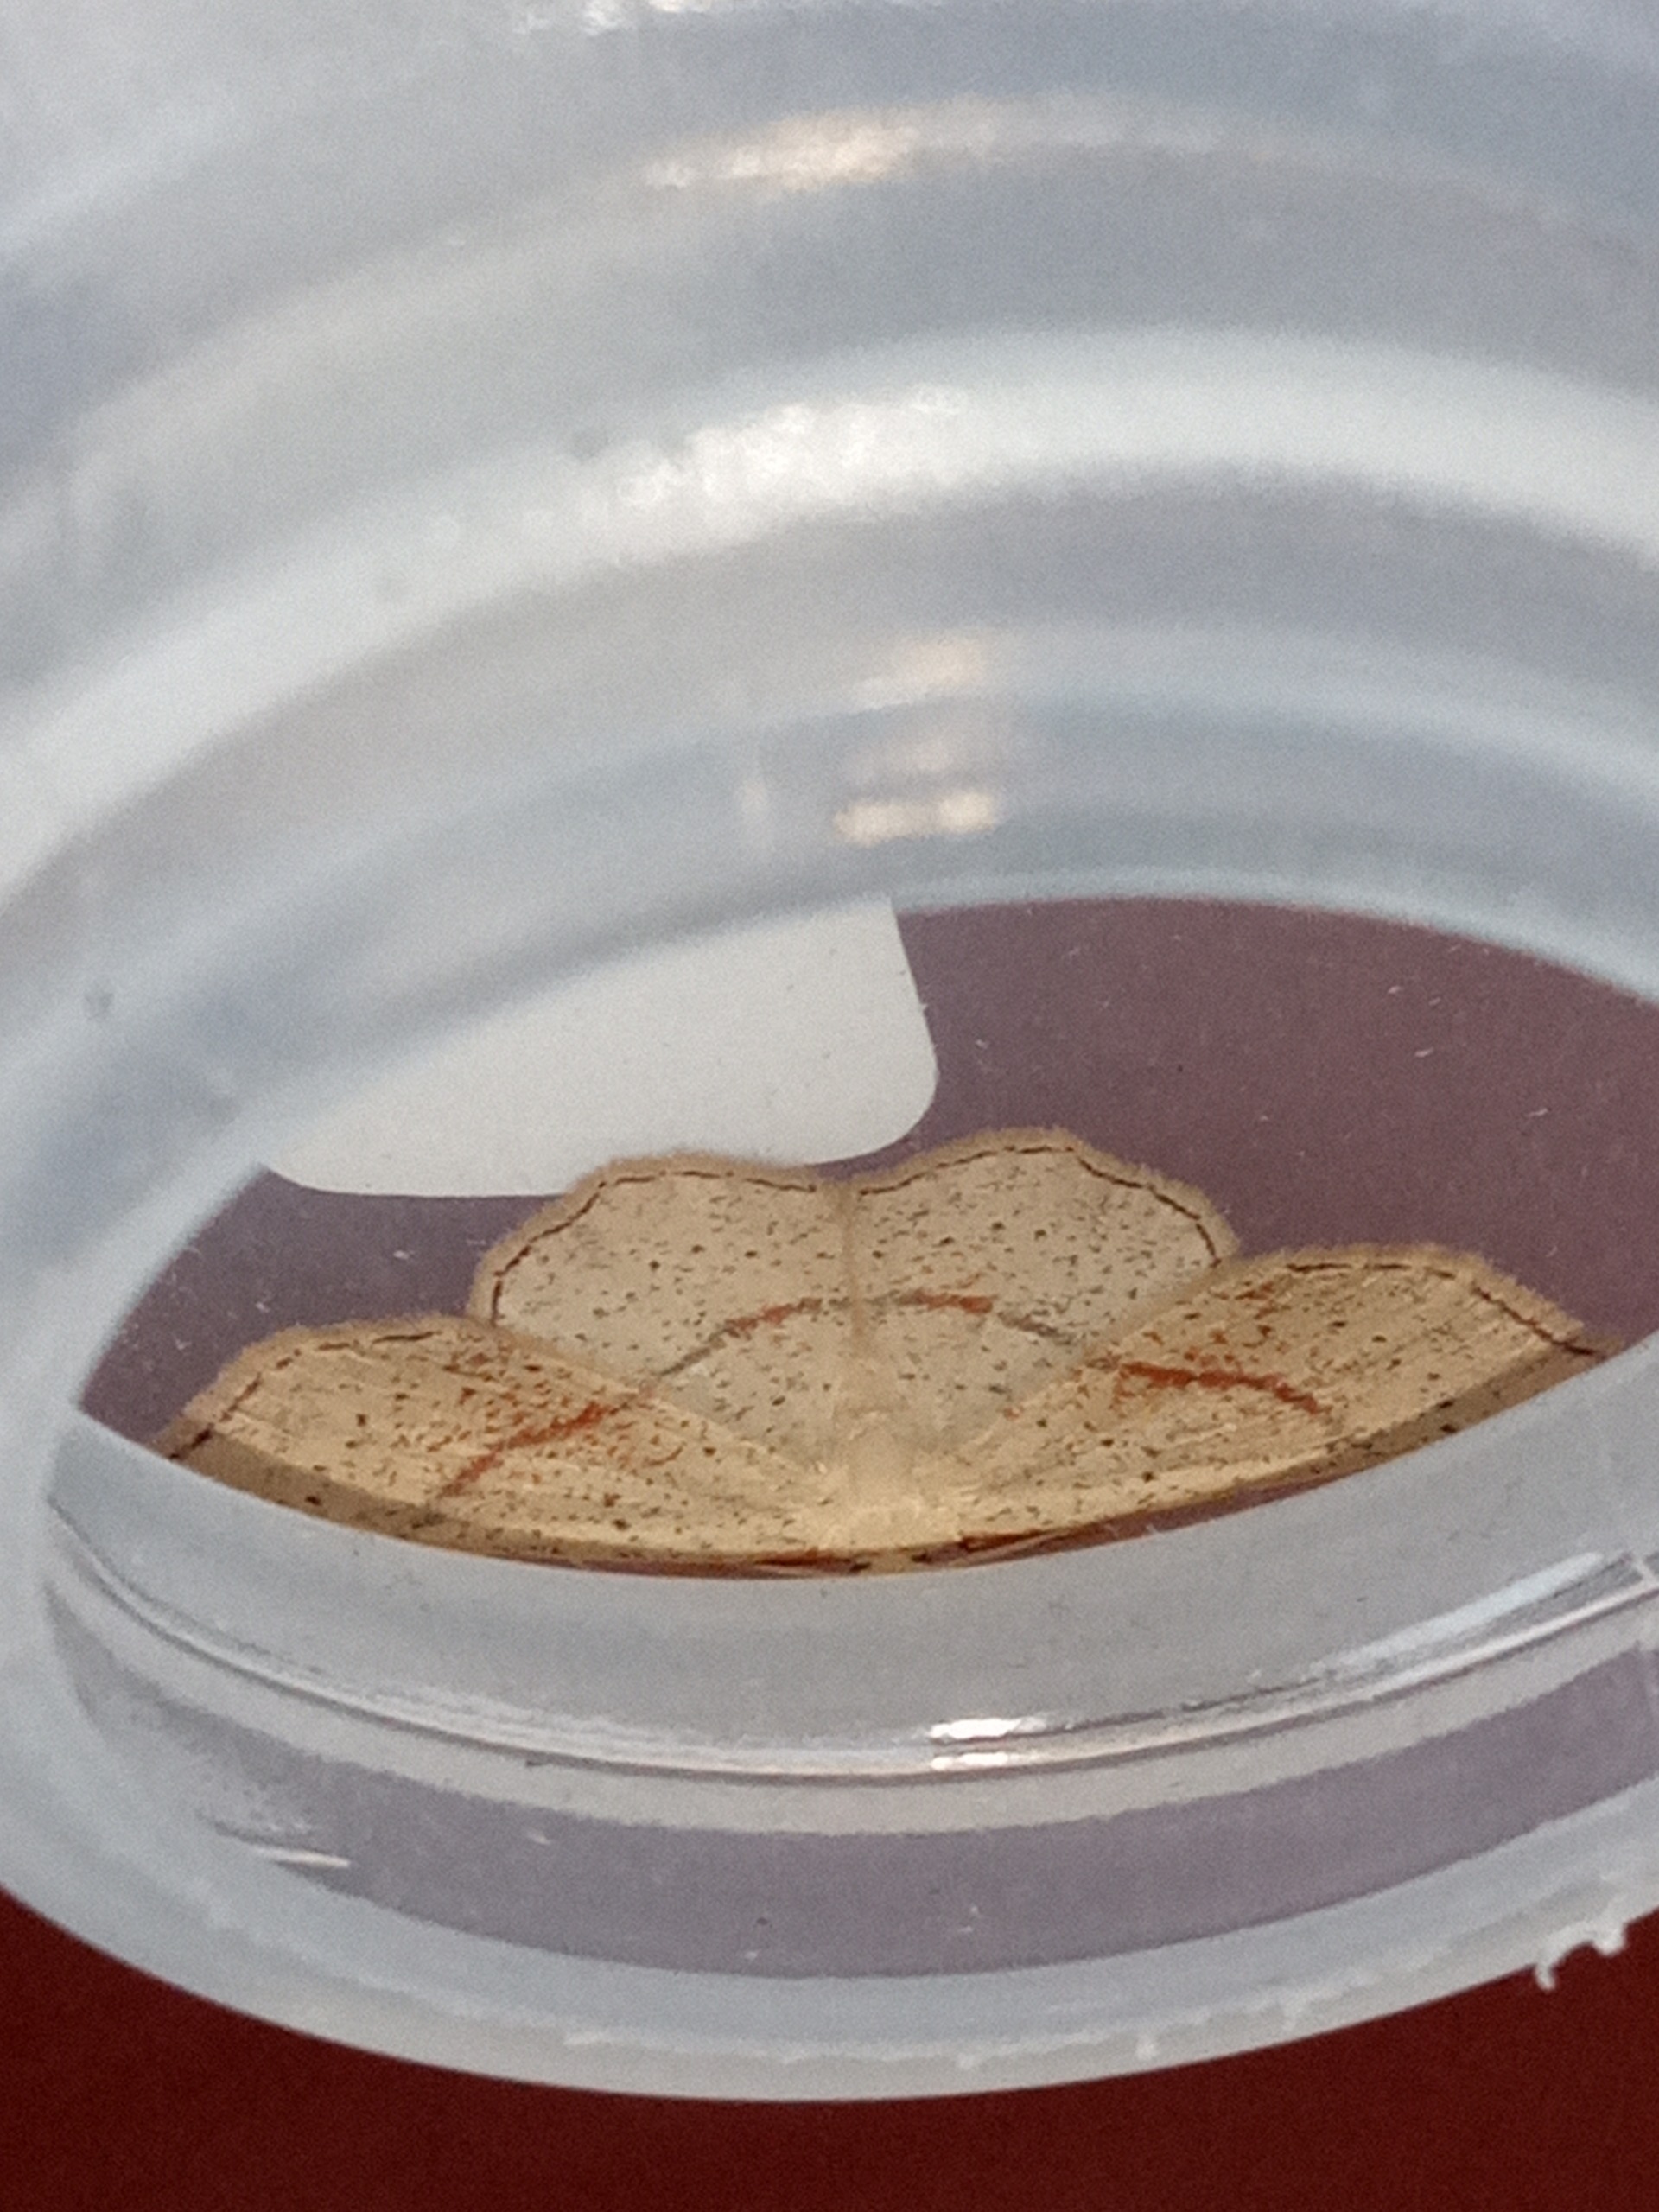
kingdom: Animalia
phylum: Arthropoda
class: Insecta
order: Lepidoptera
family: Geometridae
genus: Cyclophora
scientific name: Cyclophora punctaria
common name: Ege-bæltemåler
